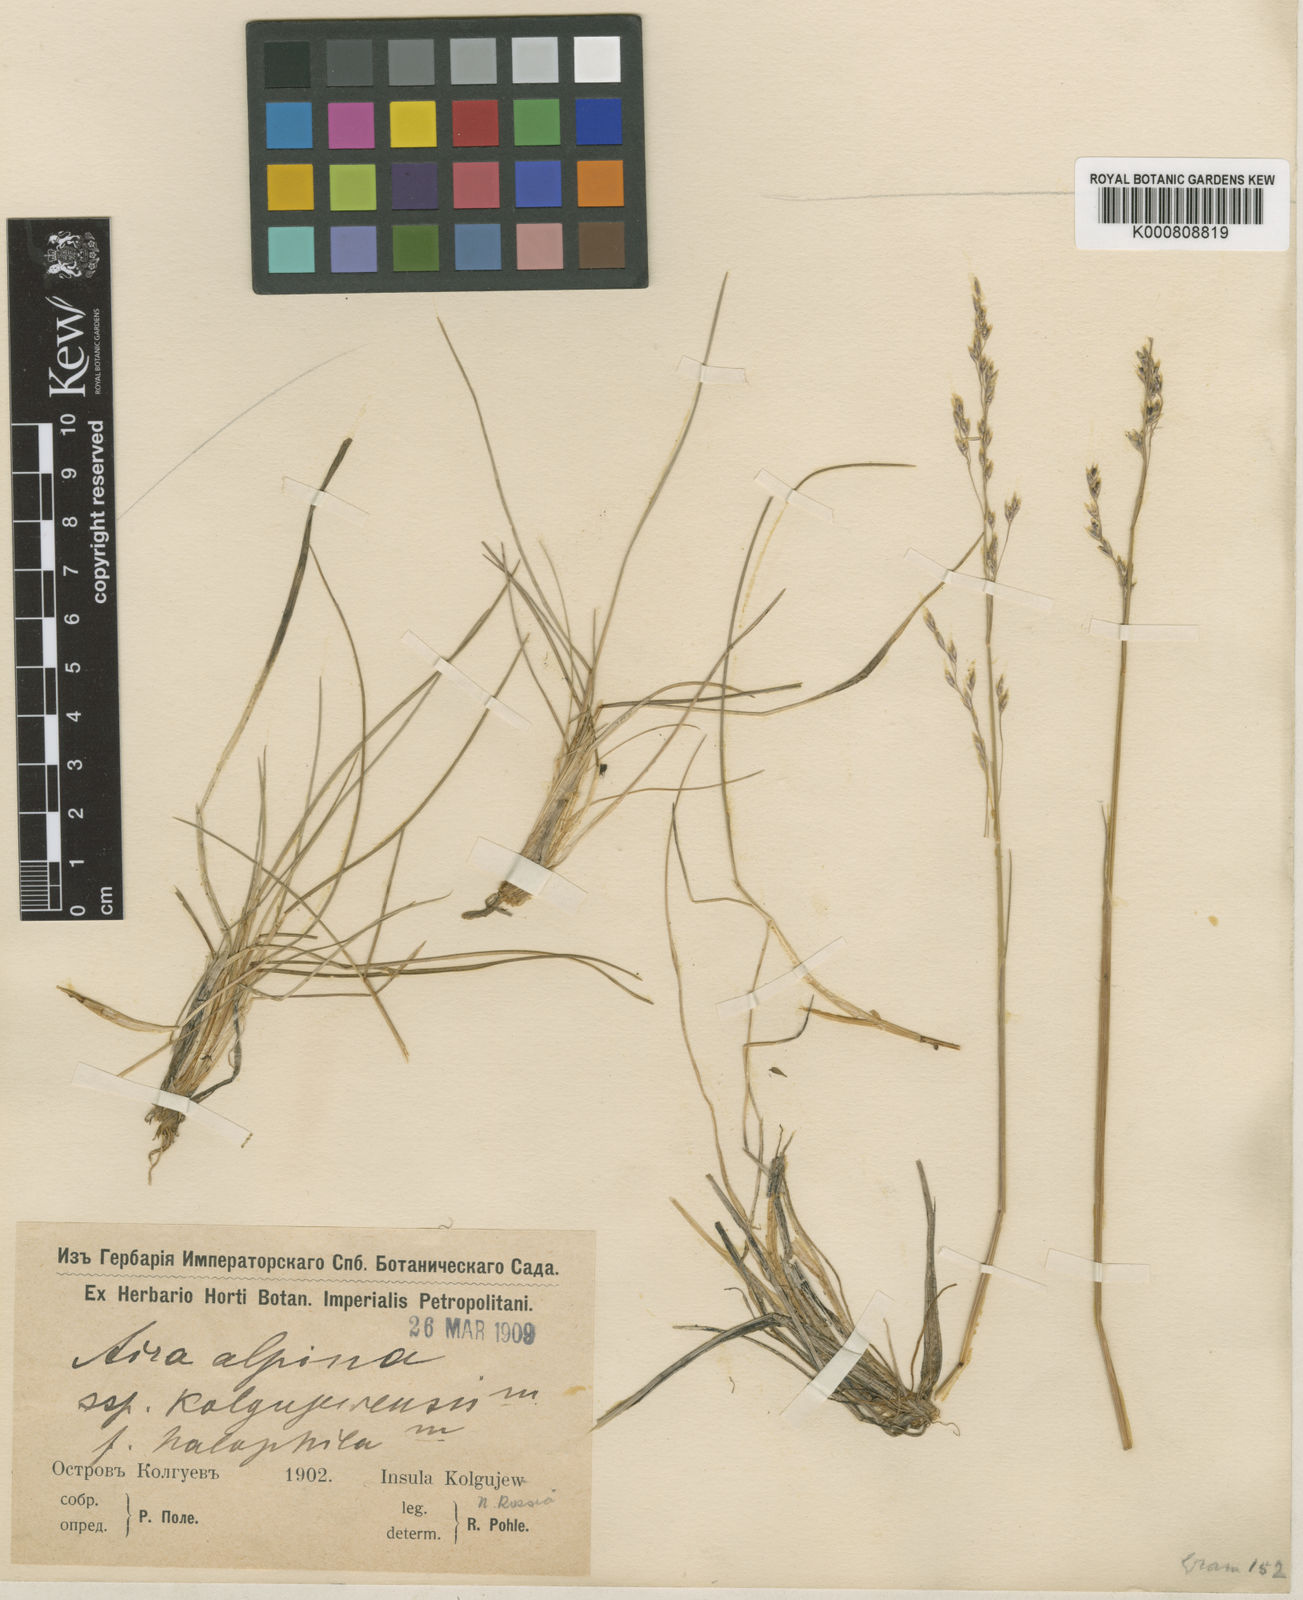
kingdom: Plantae
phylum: Tracheophyta
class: Liliopsida
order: Poales
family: Poaceae
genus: Deschampsia
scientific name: Deschampsia cespitosa
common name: Tufted hair-grass
